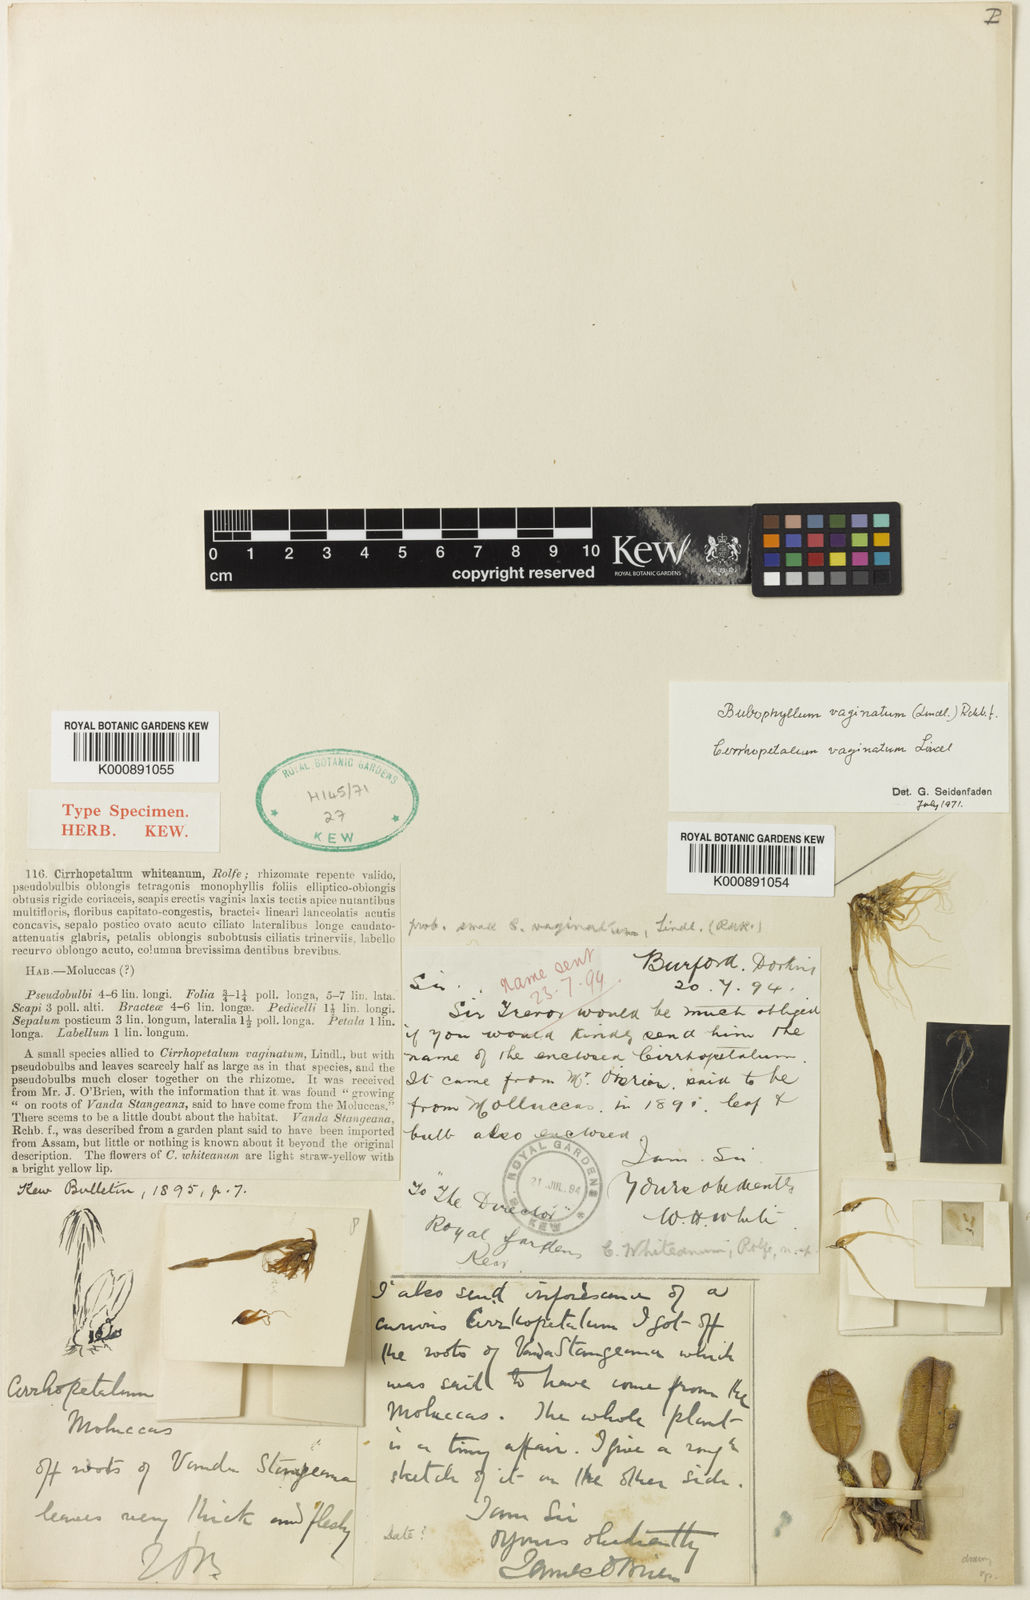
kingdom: Plantae
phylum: Tracheophyta
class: Liliopsida
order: Asparagales
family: Orchidaceae
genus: Bulbophyllum
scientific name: Bulbophyllum vaginatum
